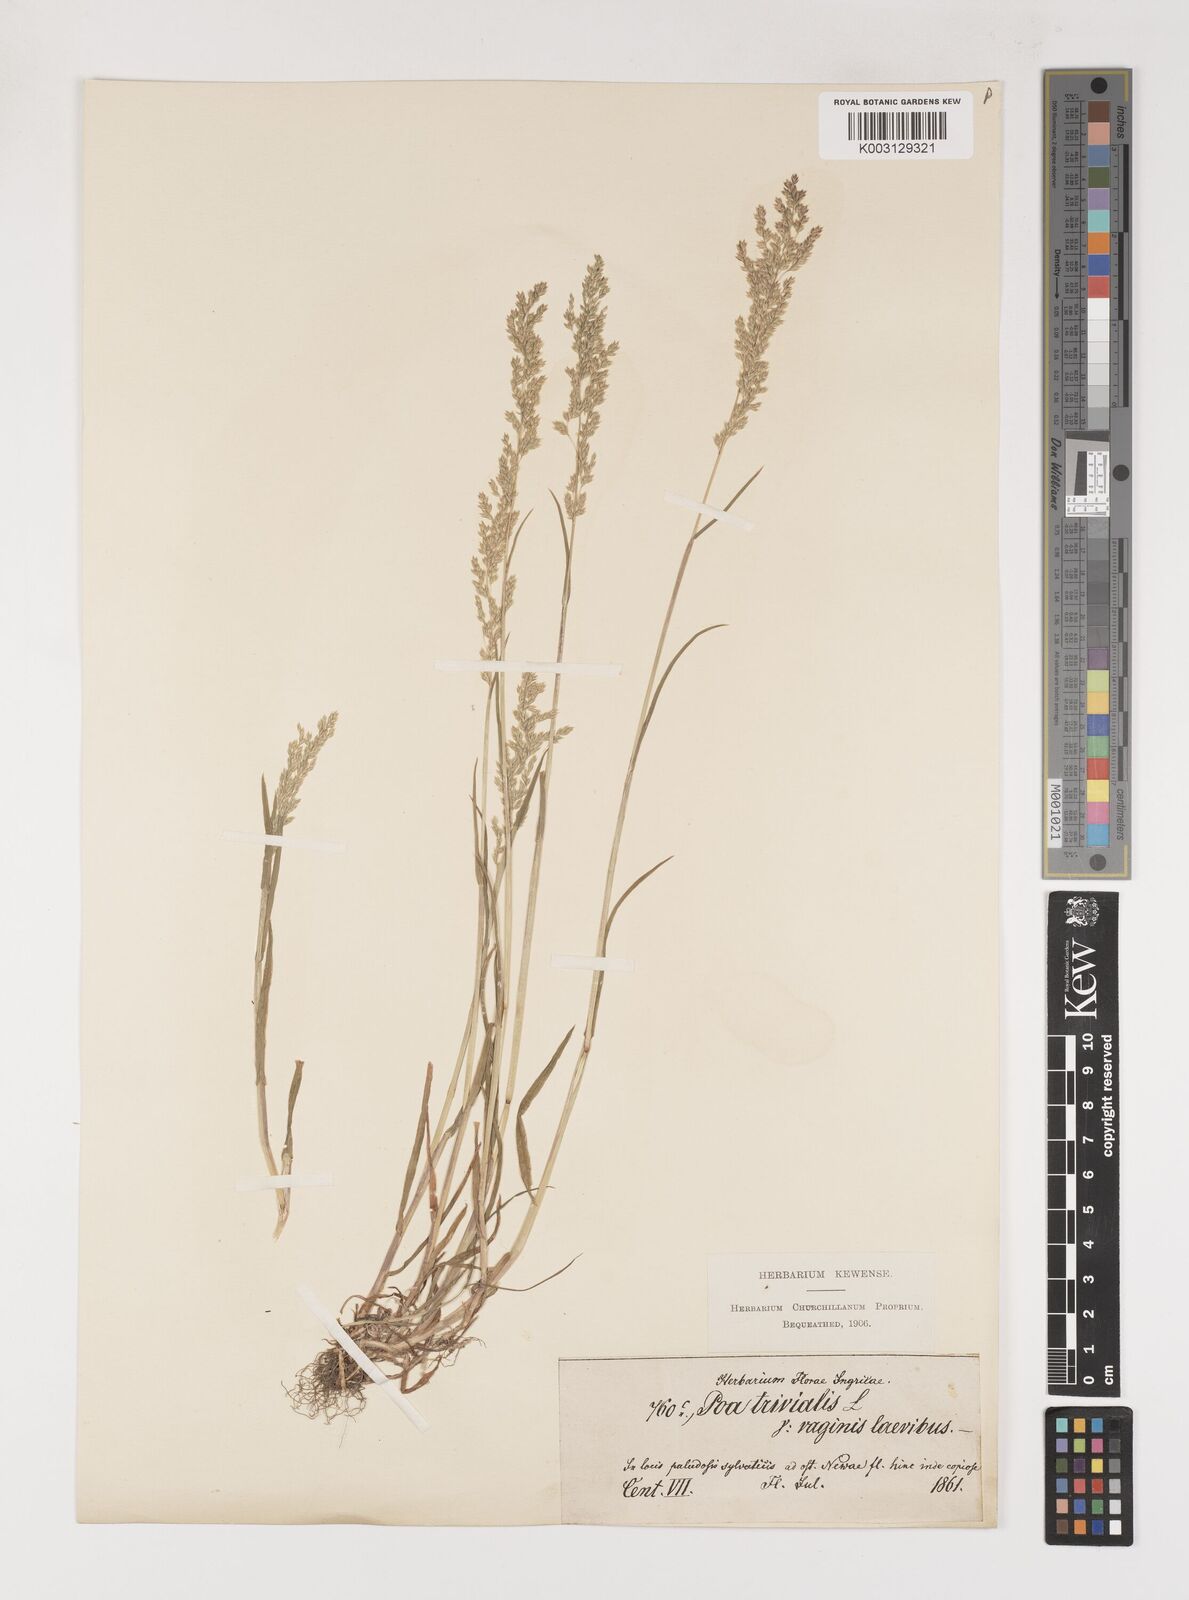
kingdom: Plantae
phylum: Tracheophyta
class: Liliopsida
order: Poales
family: Poaceae
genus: Poa
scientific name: Poa trivialis
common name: Rough bluegrass
